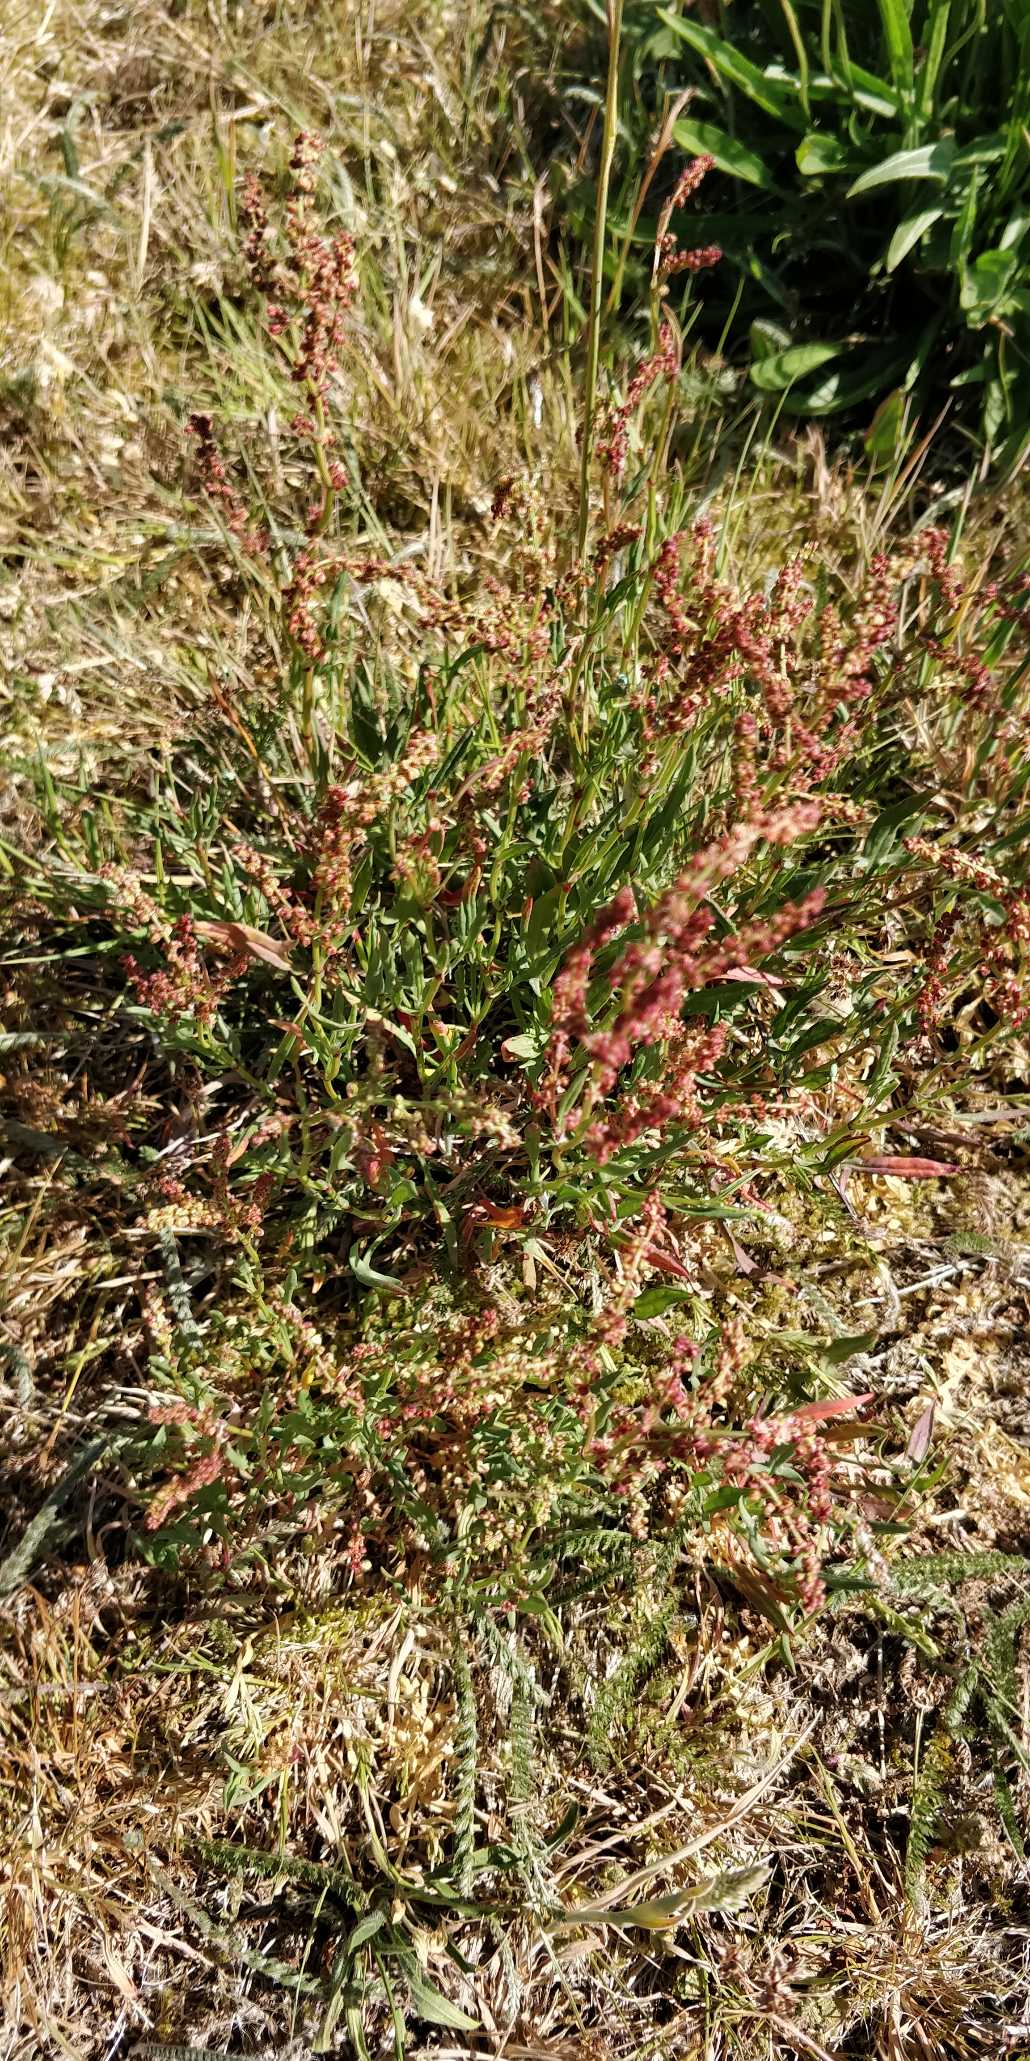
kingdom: Plantae
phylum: Tracheophyta
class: Magnoliopsida
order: Caryophyllales
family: Polygonaceae
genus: Rumex
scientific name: Rumex acetosella
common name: Rødknæ
